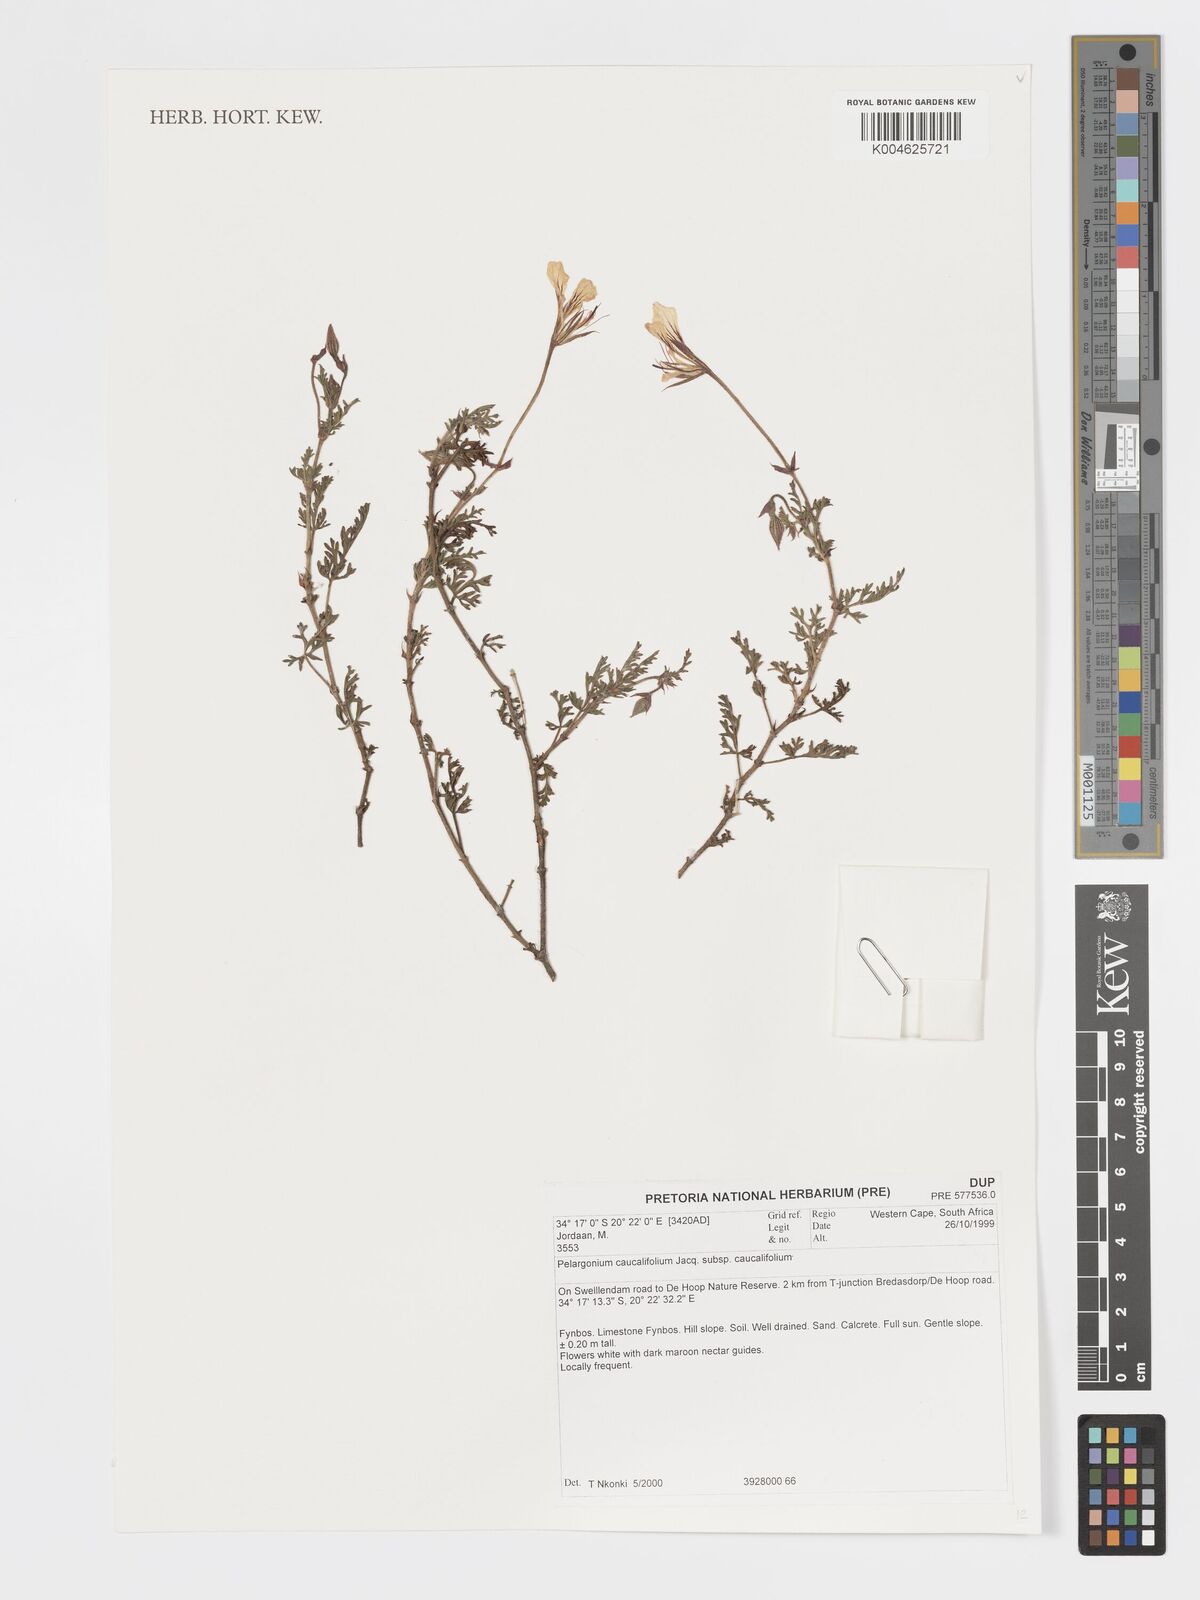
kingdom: Plantae
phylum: Tracheophyta
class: Magnoliopsida
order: Geraniales
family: Geraniaceae
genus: Pelargonium
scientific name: Pelargonium caucalifolium
